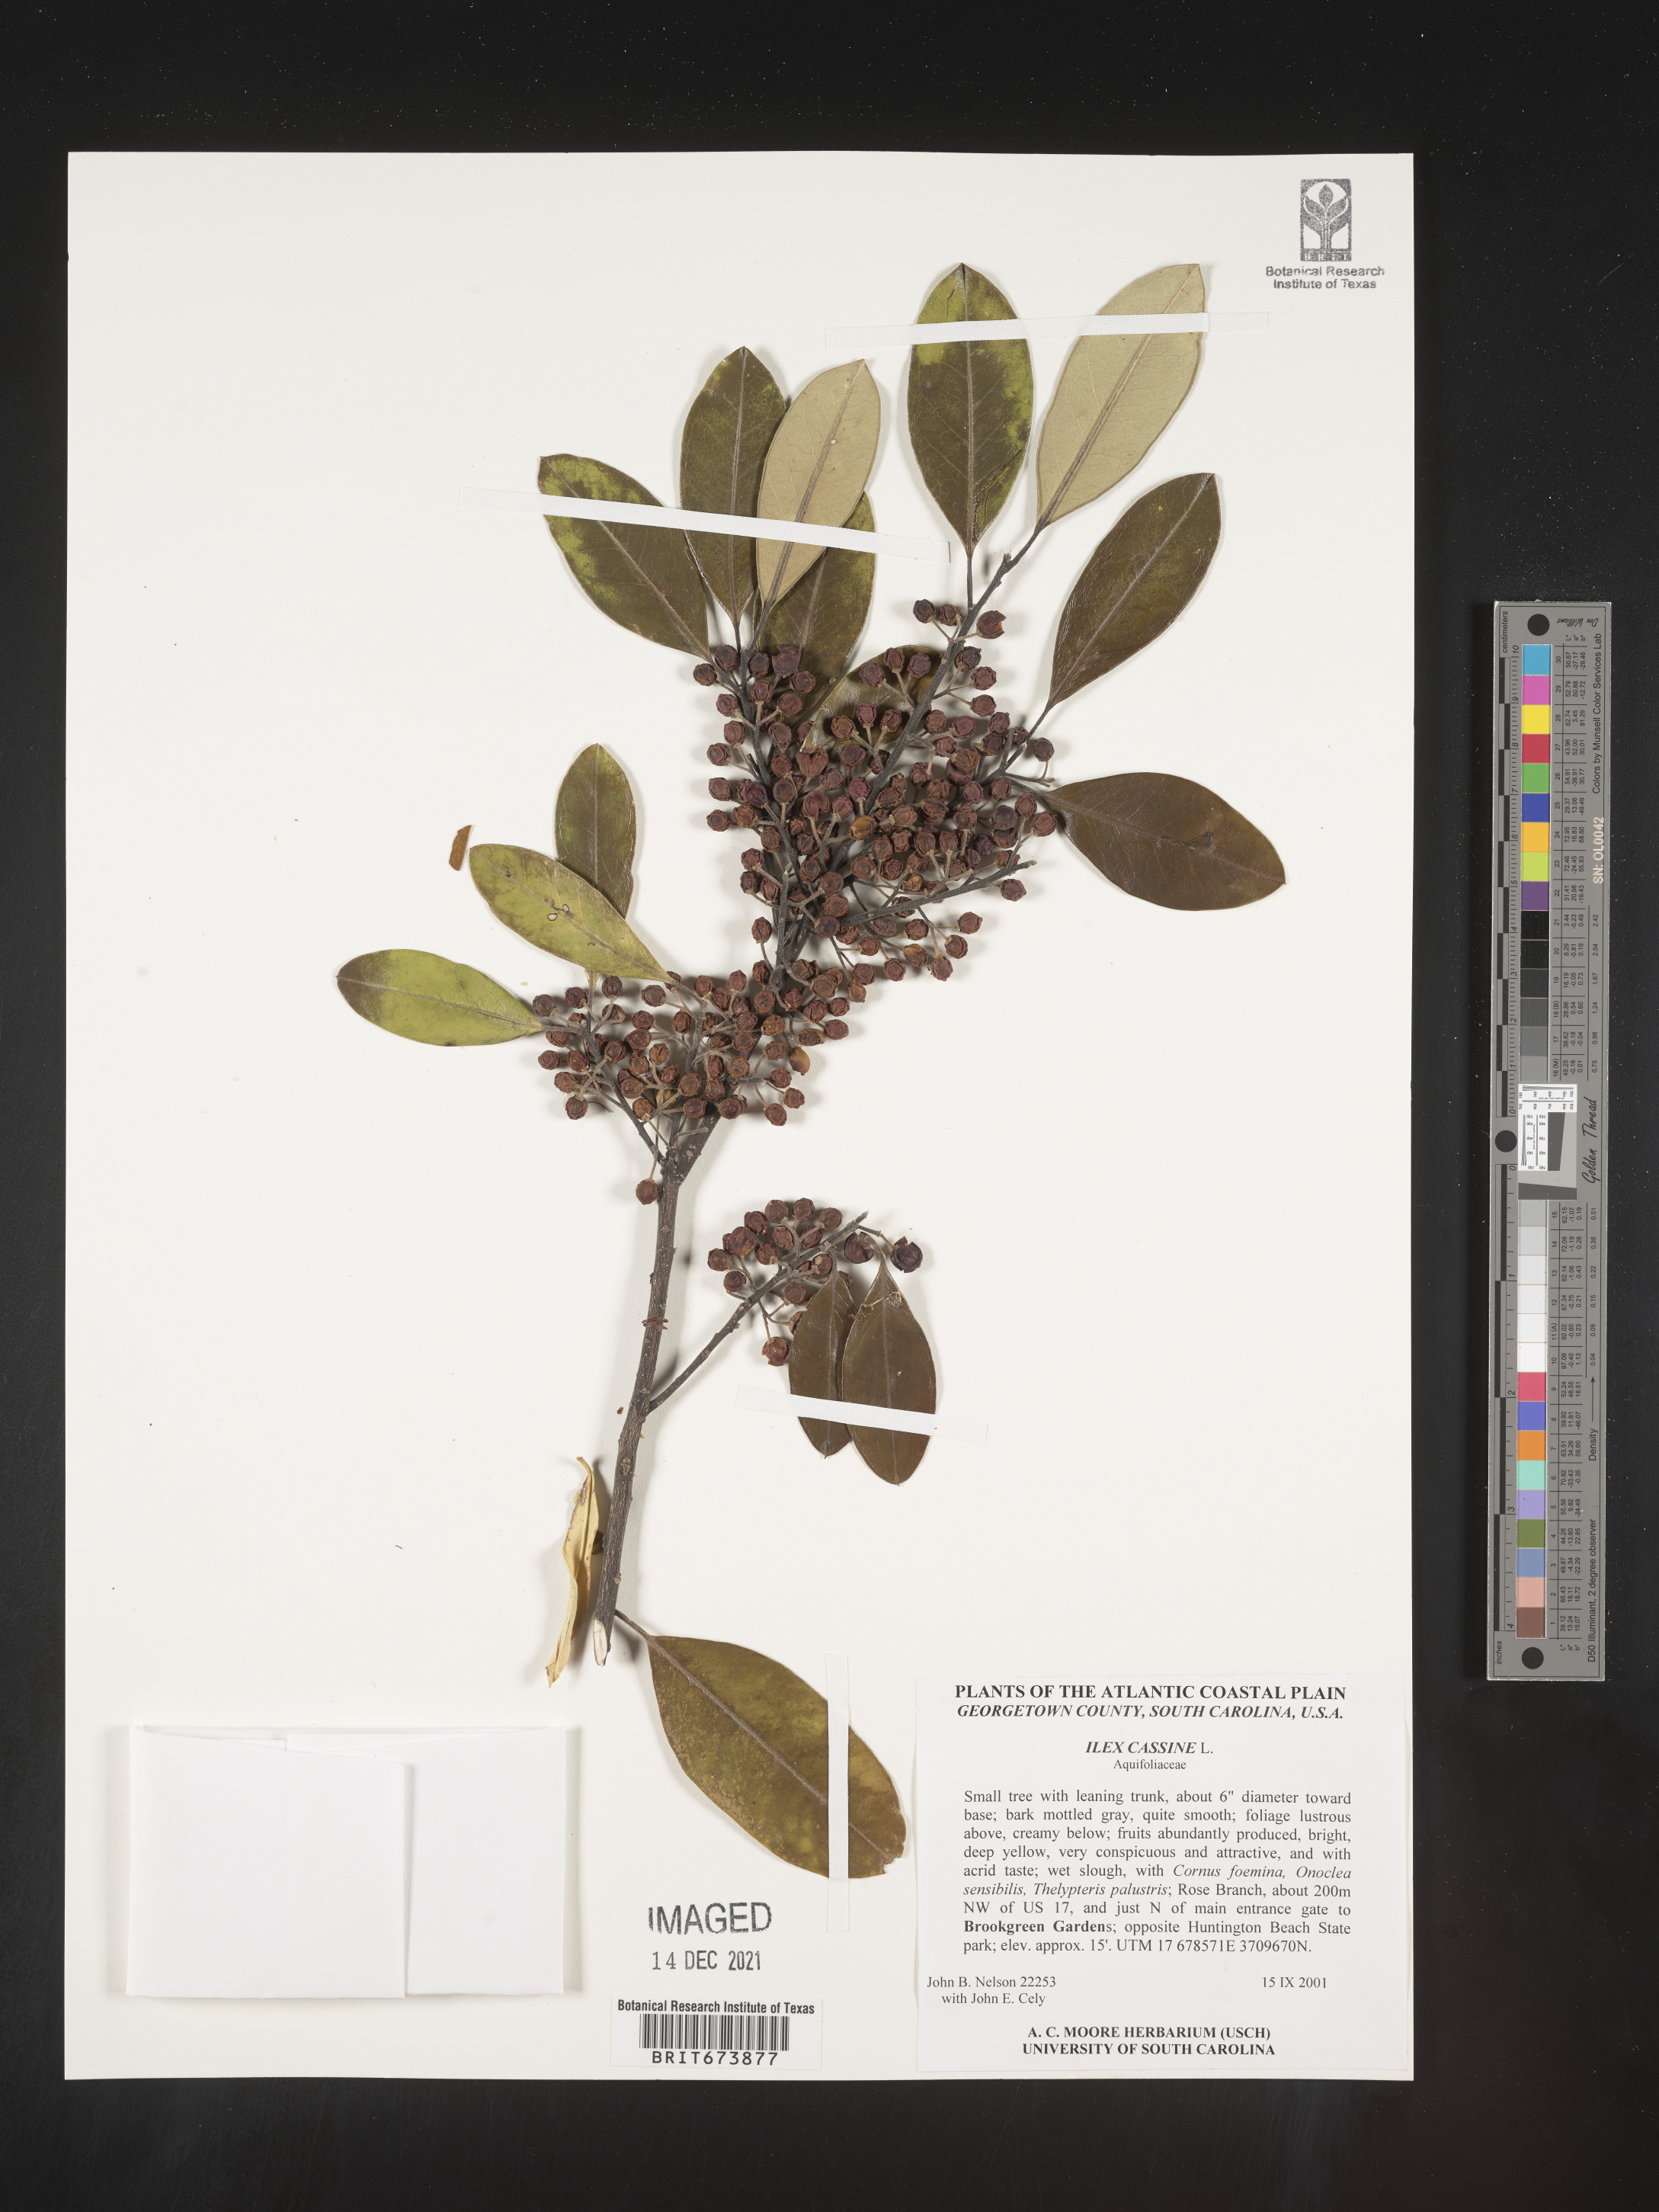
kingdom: Plantae
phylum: Tracheophyta
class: Magnoliopsida
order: Aquifoliales
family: Aquifoliaceae
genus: Ilex
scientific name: Ilex cassine
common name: Dahoon
